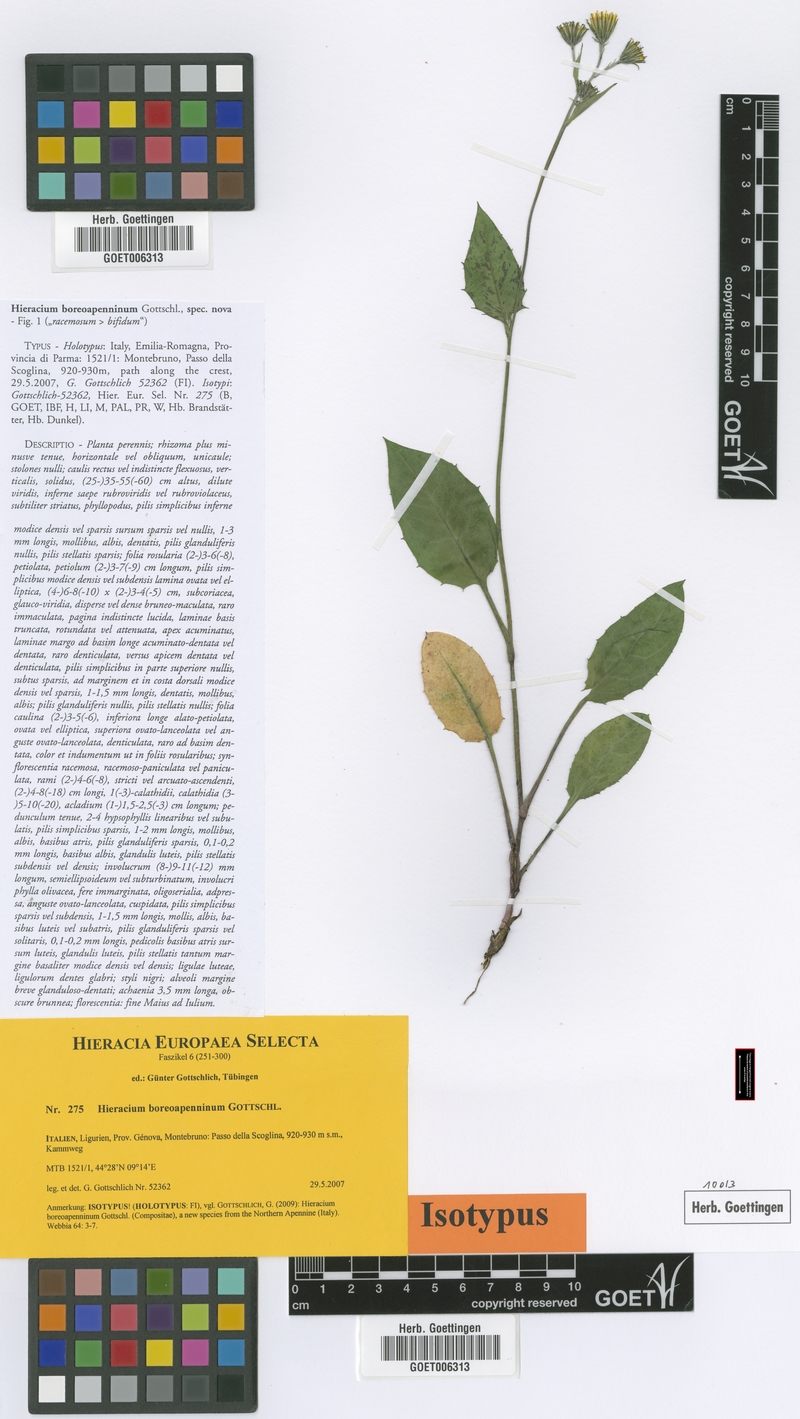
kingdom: Plantae
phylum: Tracheophyta
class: Magnoliopsida
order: Asterales
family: Asteraceae
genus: Hieracium
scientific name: Hieracium boreoapenninum
